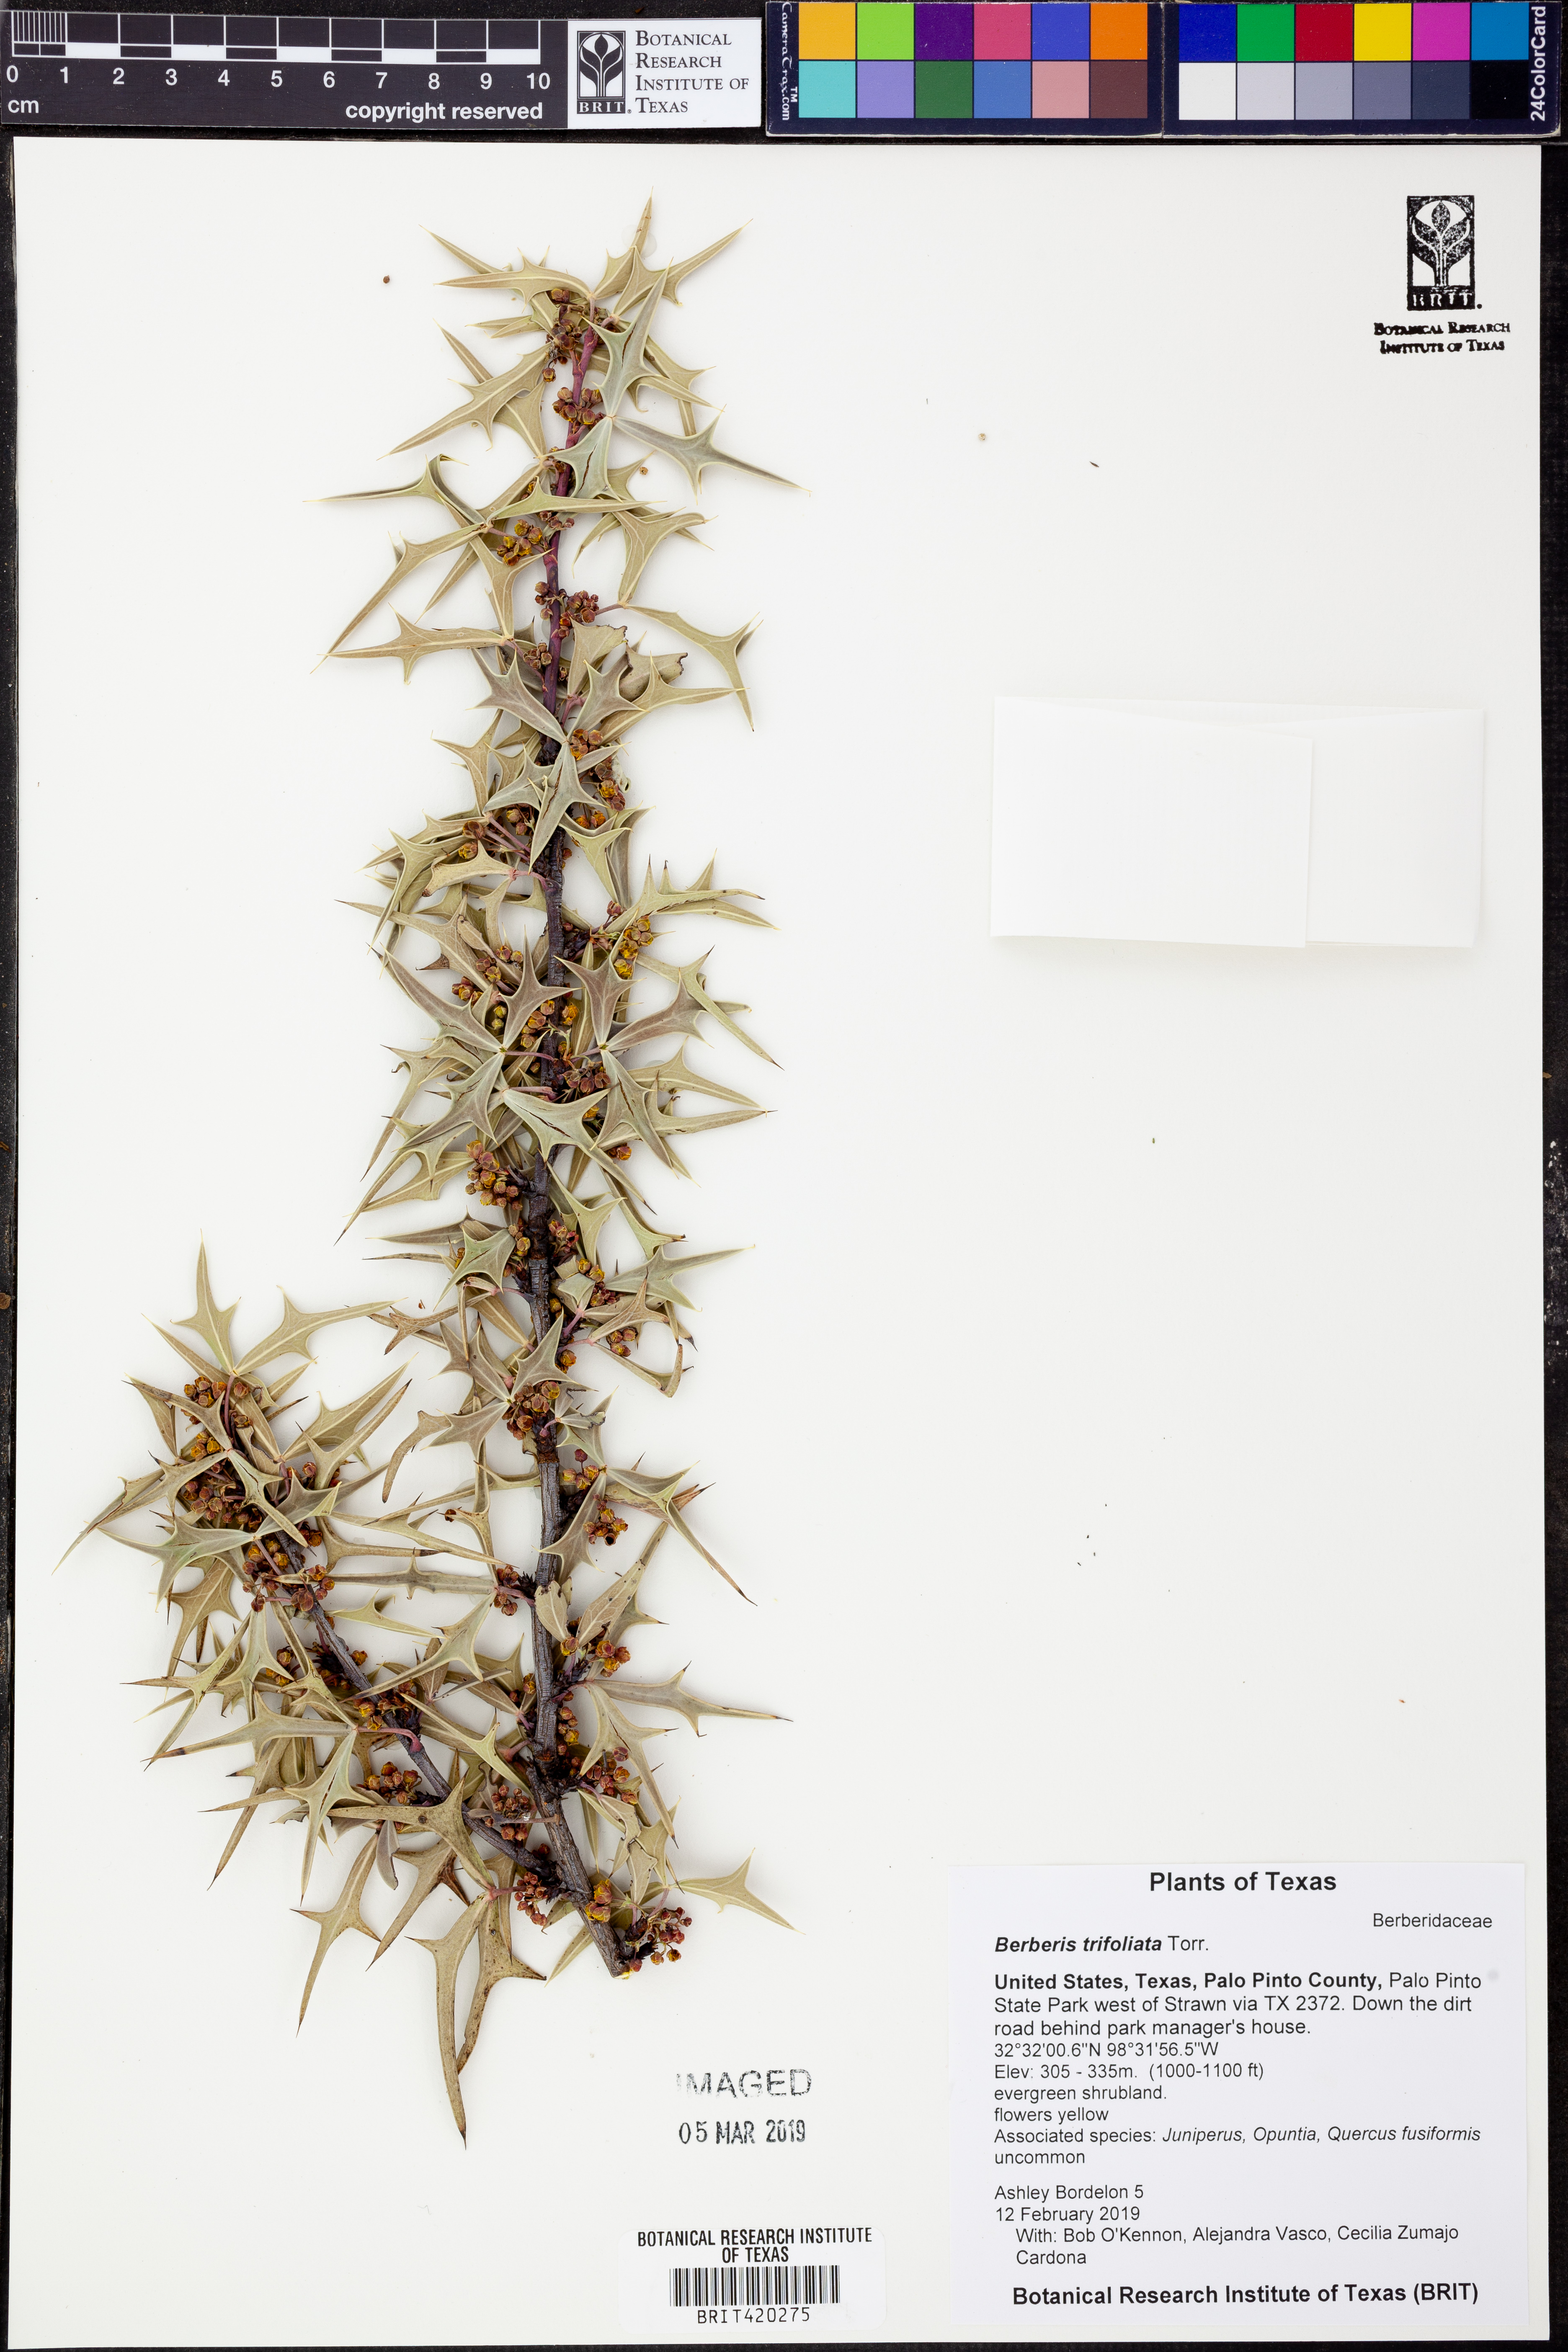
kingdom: Plantae
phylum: Tracheophyta
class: Magnoliopsida
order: Ranunculales
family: Berberidaceae
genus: Alloberberis
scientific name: Alloberberis fremontii
